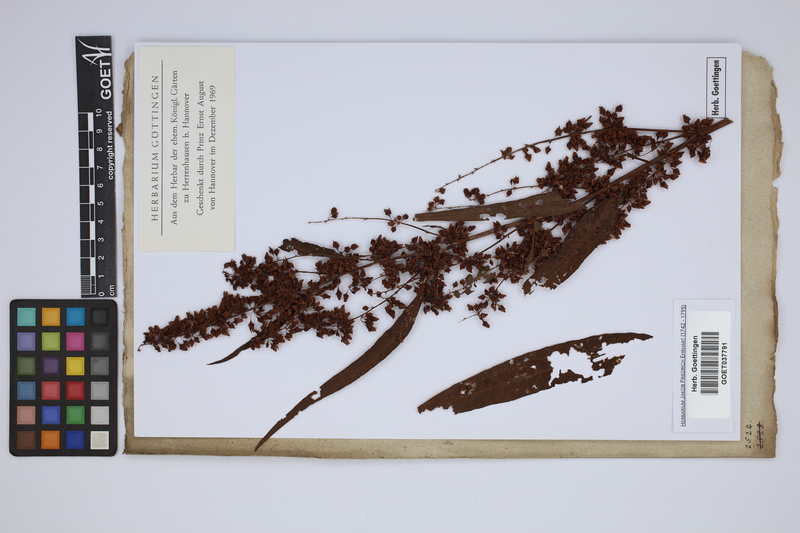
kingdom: Plantae
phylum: Tracheophyta
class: Magnoliopsida
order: Caryophyllales
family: Polygonaceae
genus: Rumex
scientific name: Rumex obtusifolius
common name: Bitter dock
